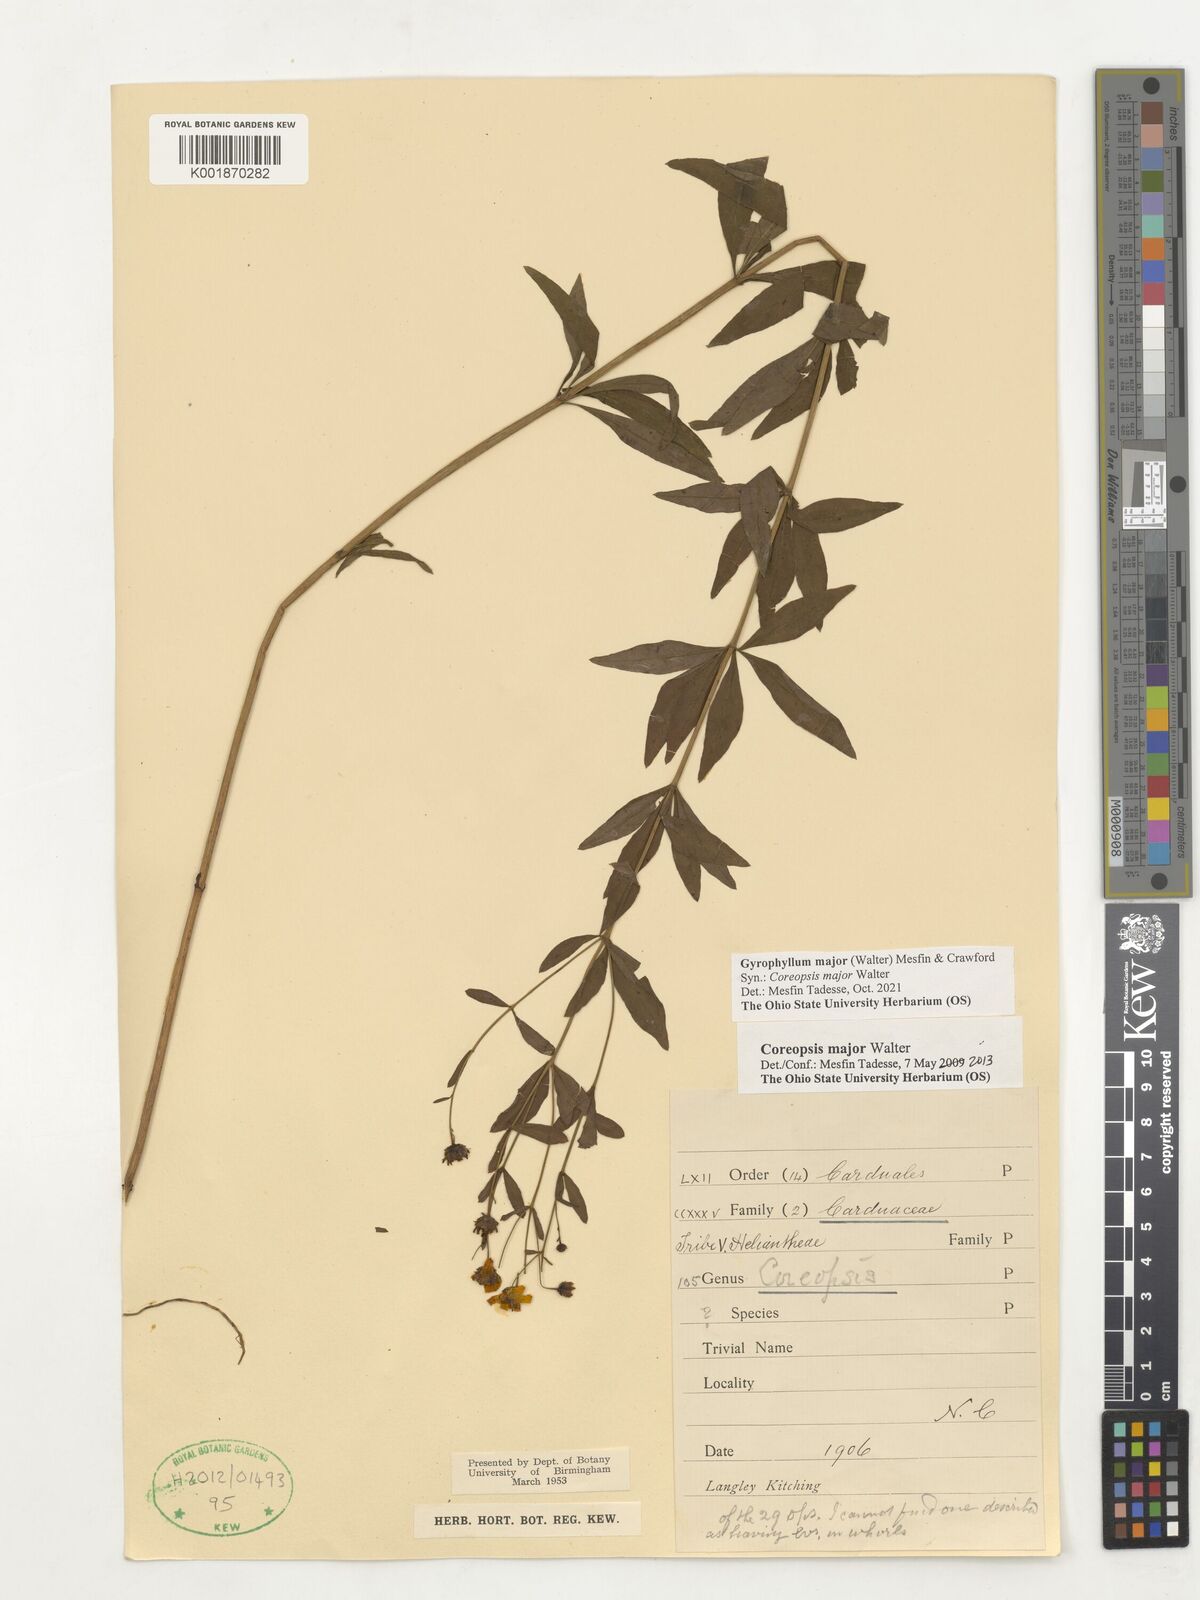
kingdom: Plantae
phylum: Tracheophyta
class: Magnoliopsida
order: Asterales
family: Asteraceae
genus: Coreopsis
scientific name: Coreopsis major
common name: Forest tickseed
